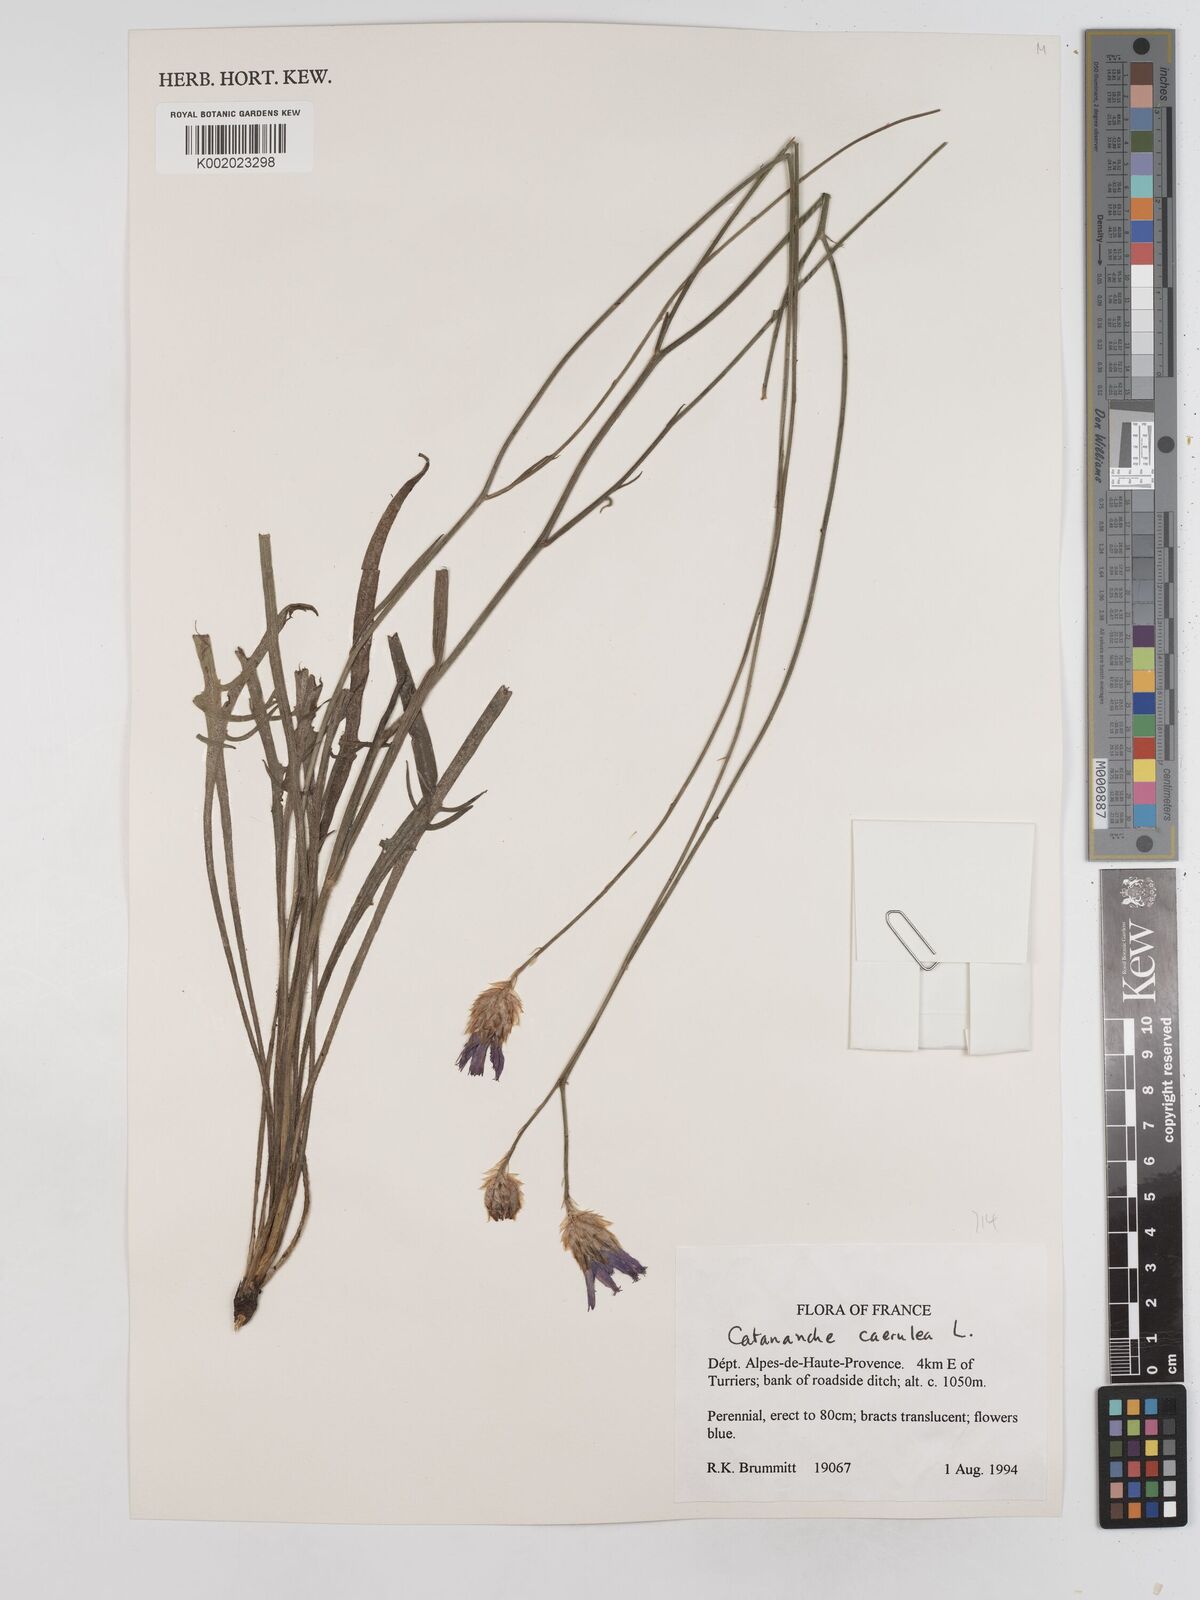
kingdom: Plantae
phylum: Tracheophyta
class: Magnoliopsida
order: Asterales
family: Asteraceae
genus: Catananche
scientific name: Catananche caerulea
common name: Blue cupidone
